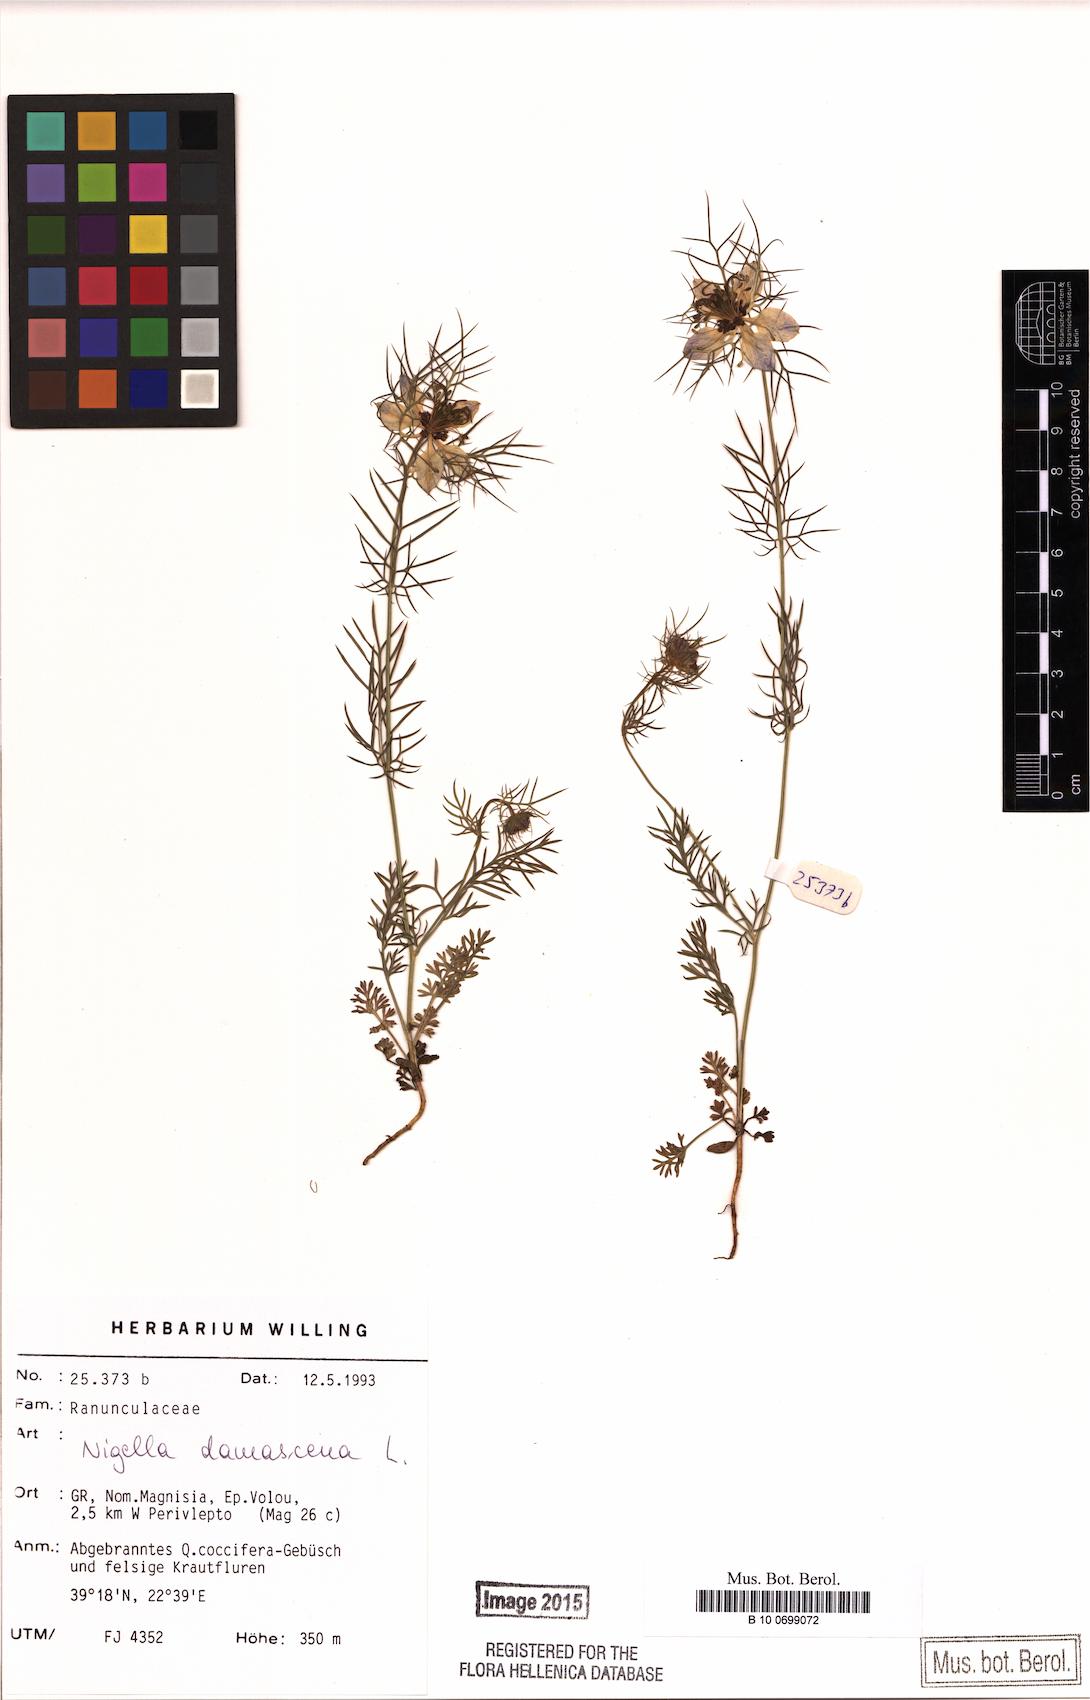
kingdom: Plantae
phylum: Tracheophyta
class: Magnoliopsida
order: Ranunculales
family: Ranunculaceae
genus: Nigella
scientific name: Nigella damascena
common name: Love-in-a-mist
